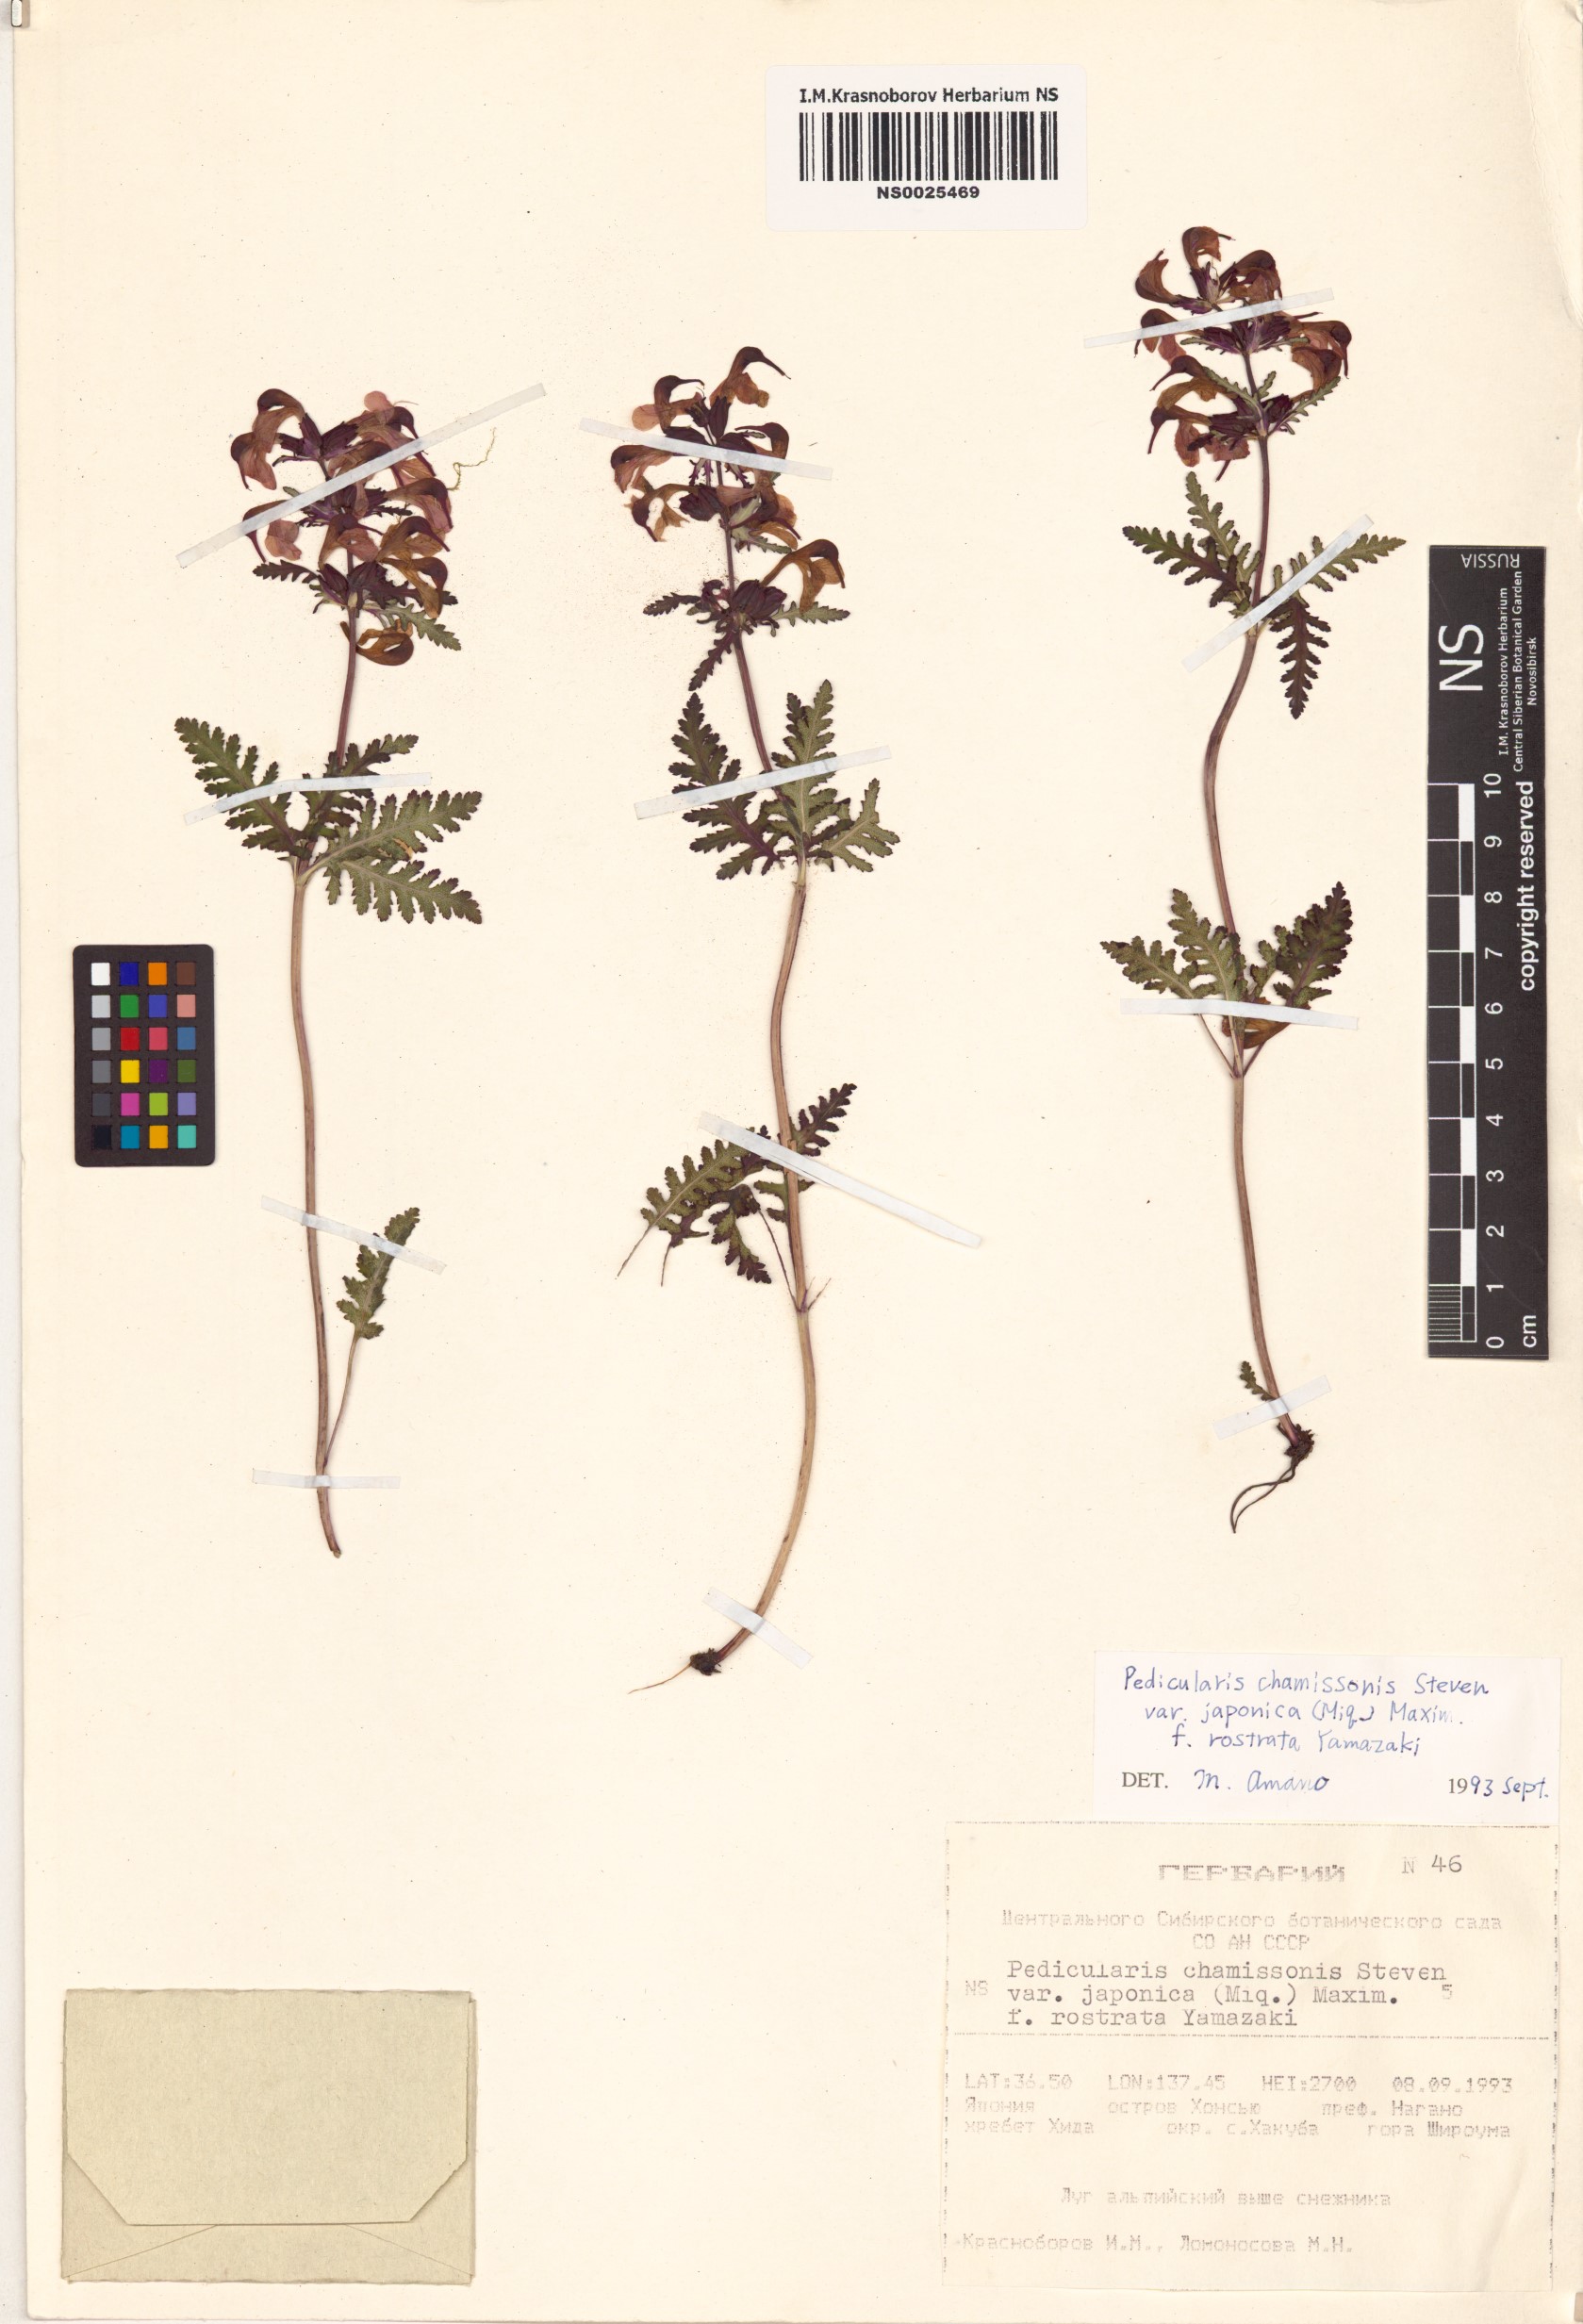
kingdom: Plantae
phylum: Tracheophyta
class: Magnoliopsida
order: Lamiales
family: Orobanchaceae
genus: Pedicularis
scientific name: Pedicularis chamissonis
